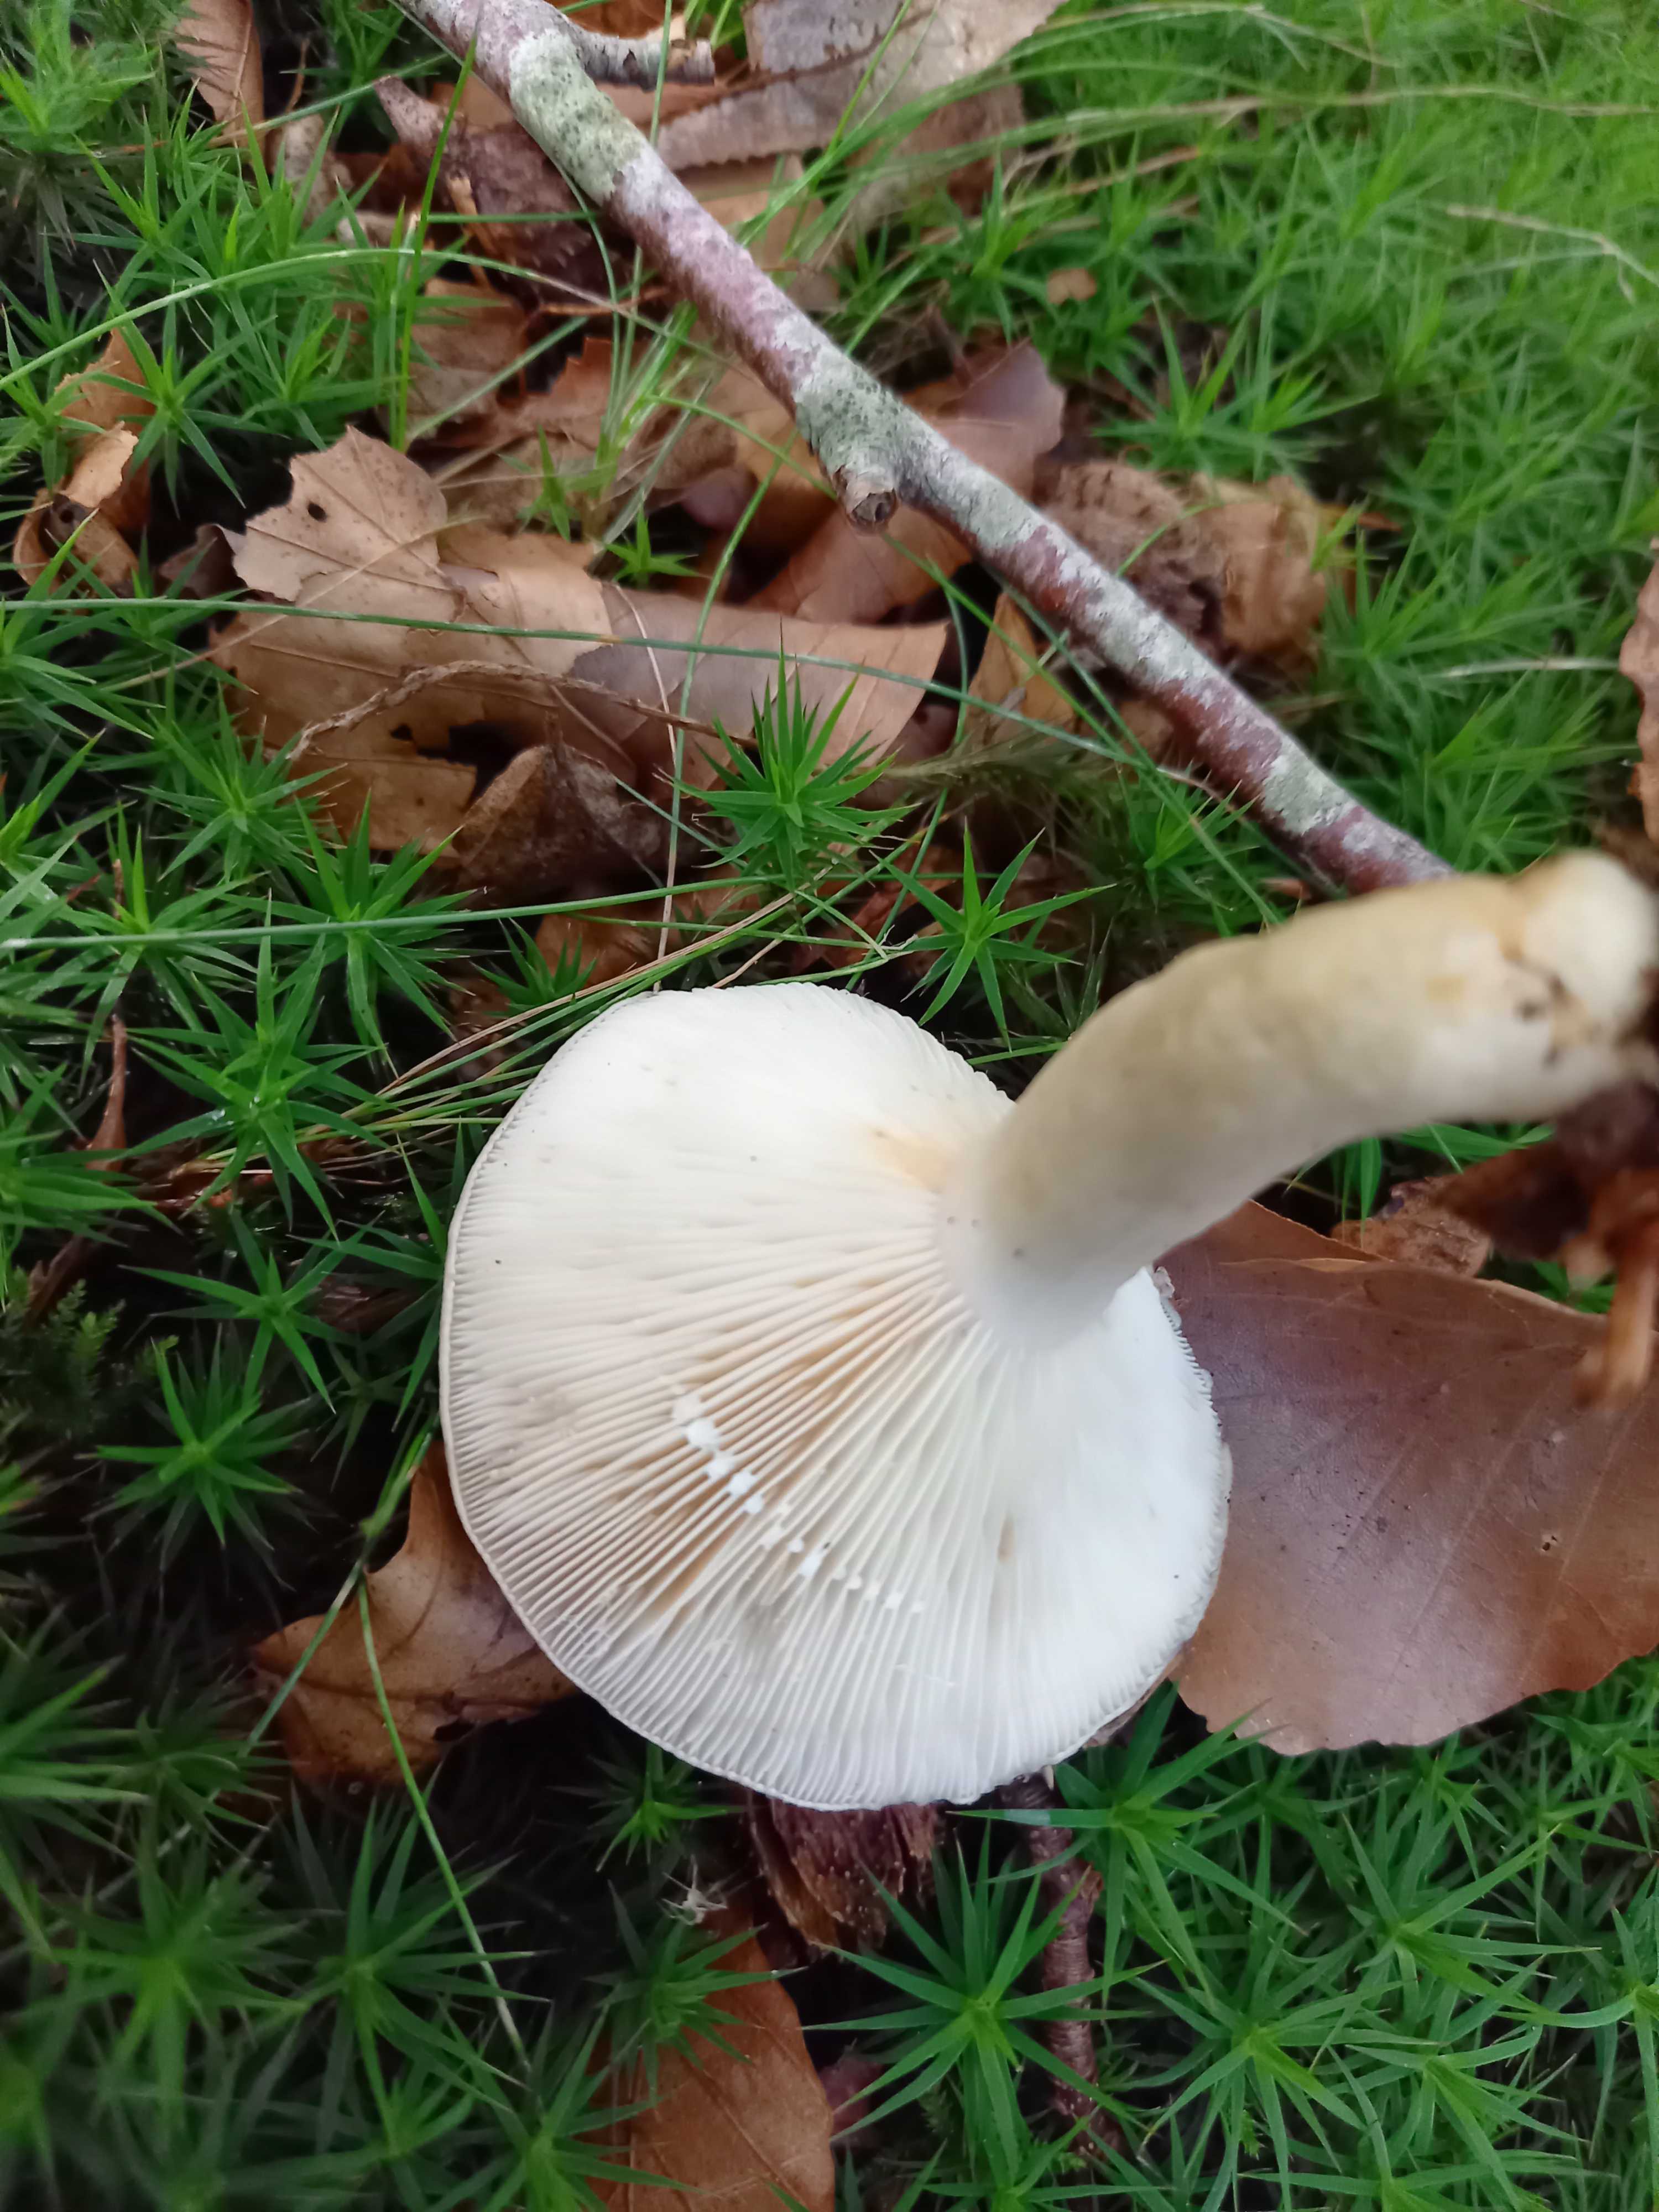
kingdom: Fungi
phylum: Basidiomycota
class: Agaricomycetes
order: Russulales
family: Russulaceae
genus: Lactarius
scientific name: Lactarius fluens
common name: lysrandet mælkehat
